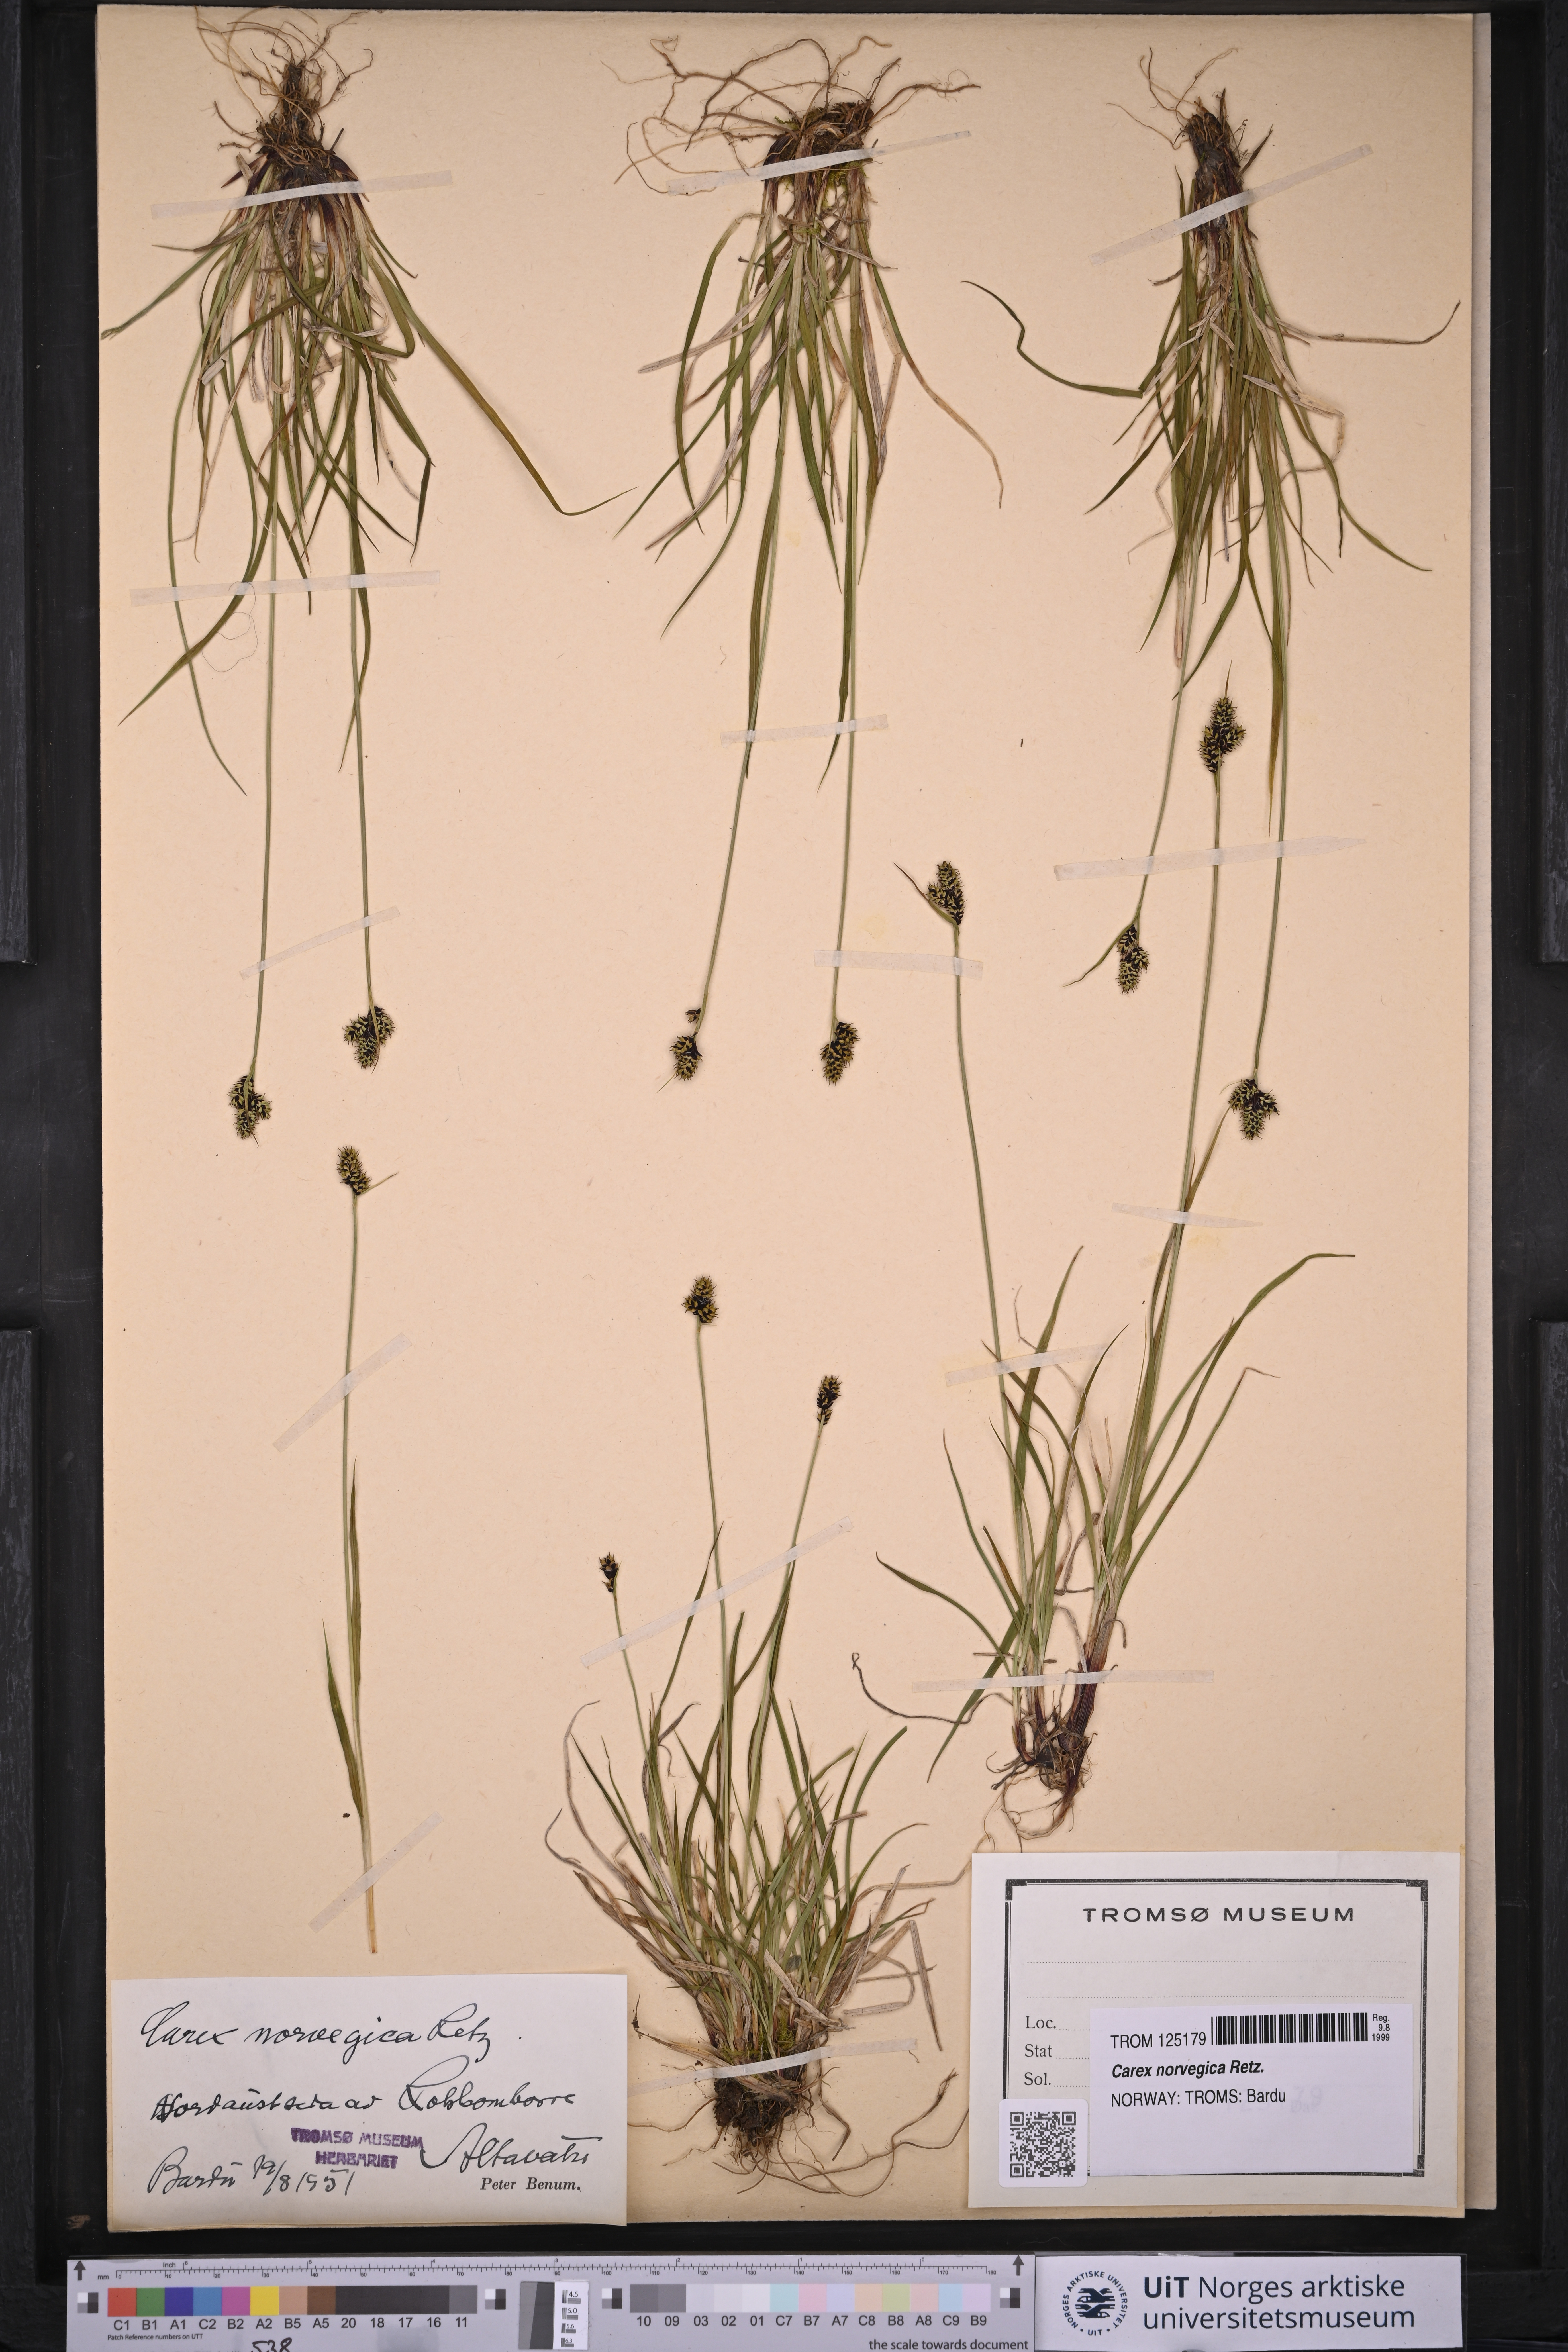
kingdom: Plantae
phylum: Tracheophyta
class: Liliopsida
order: Poales
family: Cyperaceae
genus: Carex
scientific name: Carex norvegica
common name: Close-headed alpine-sedge
